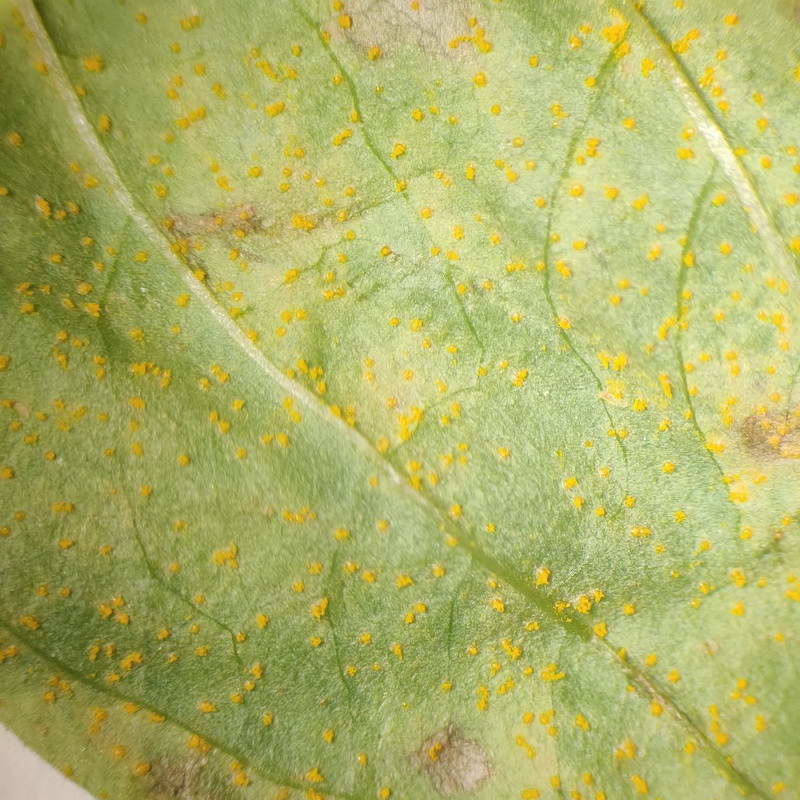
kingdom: Fungi
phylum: Basidiomycota
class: Pucciniomycetes
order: Pucciniales
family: Pucciniaceae
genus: Puccinia
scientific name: Puccinia pulverulenta
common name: dueurt-tvecellerust
